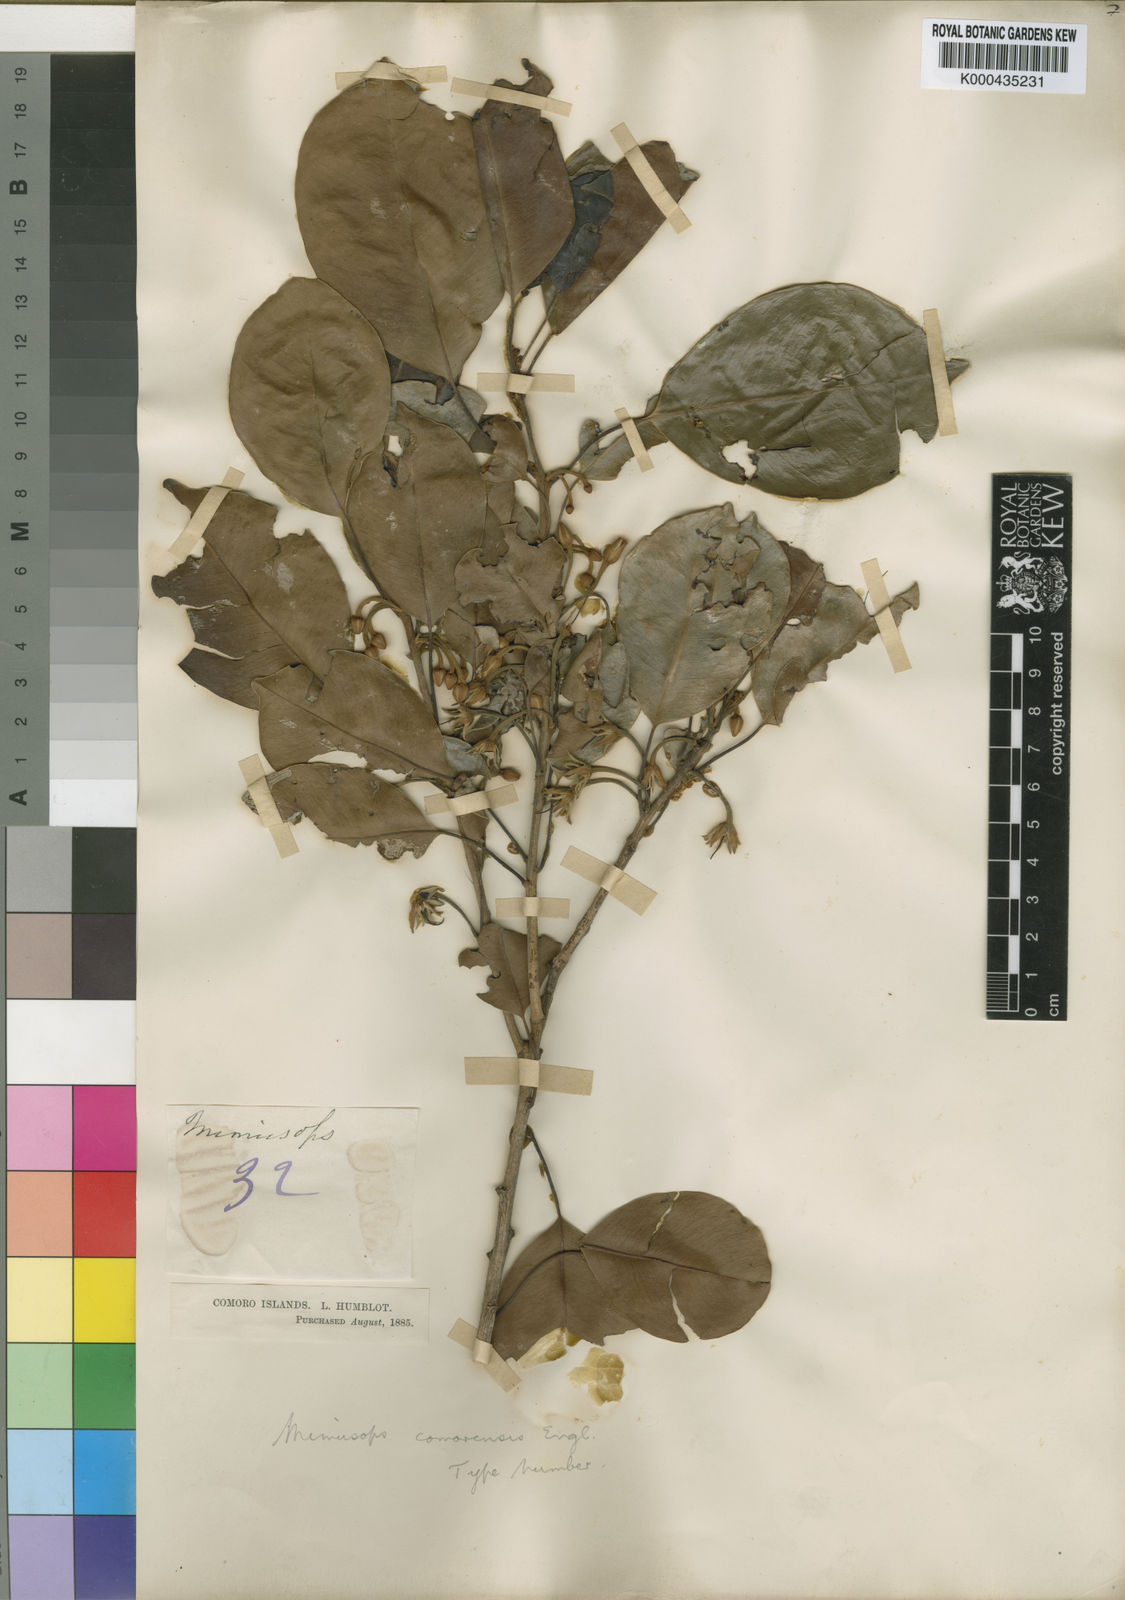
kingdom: Plantae
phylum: Tracheophyta
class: Magnoliopsida
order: Ericales
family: Sapotaceae
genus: Mimusops
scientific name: Mimusops comorensis
